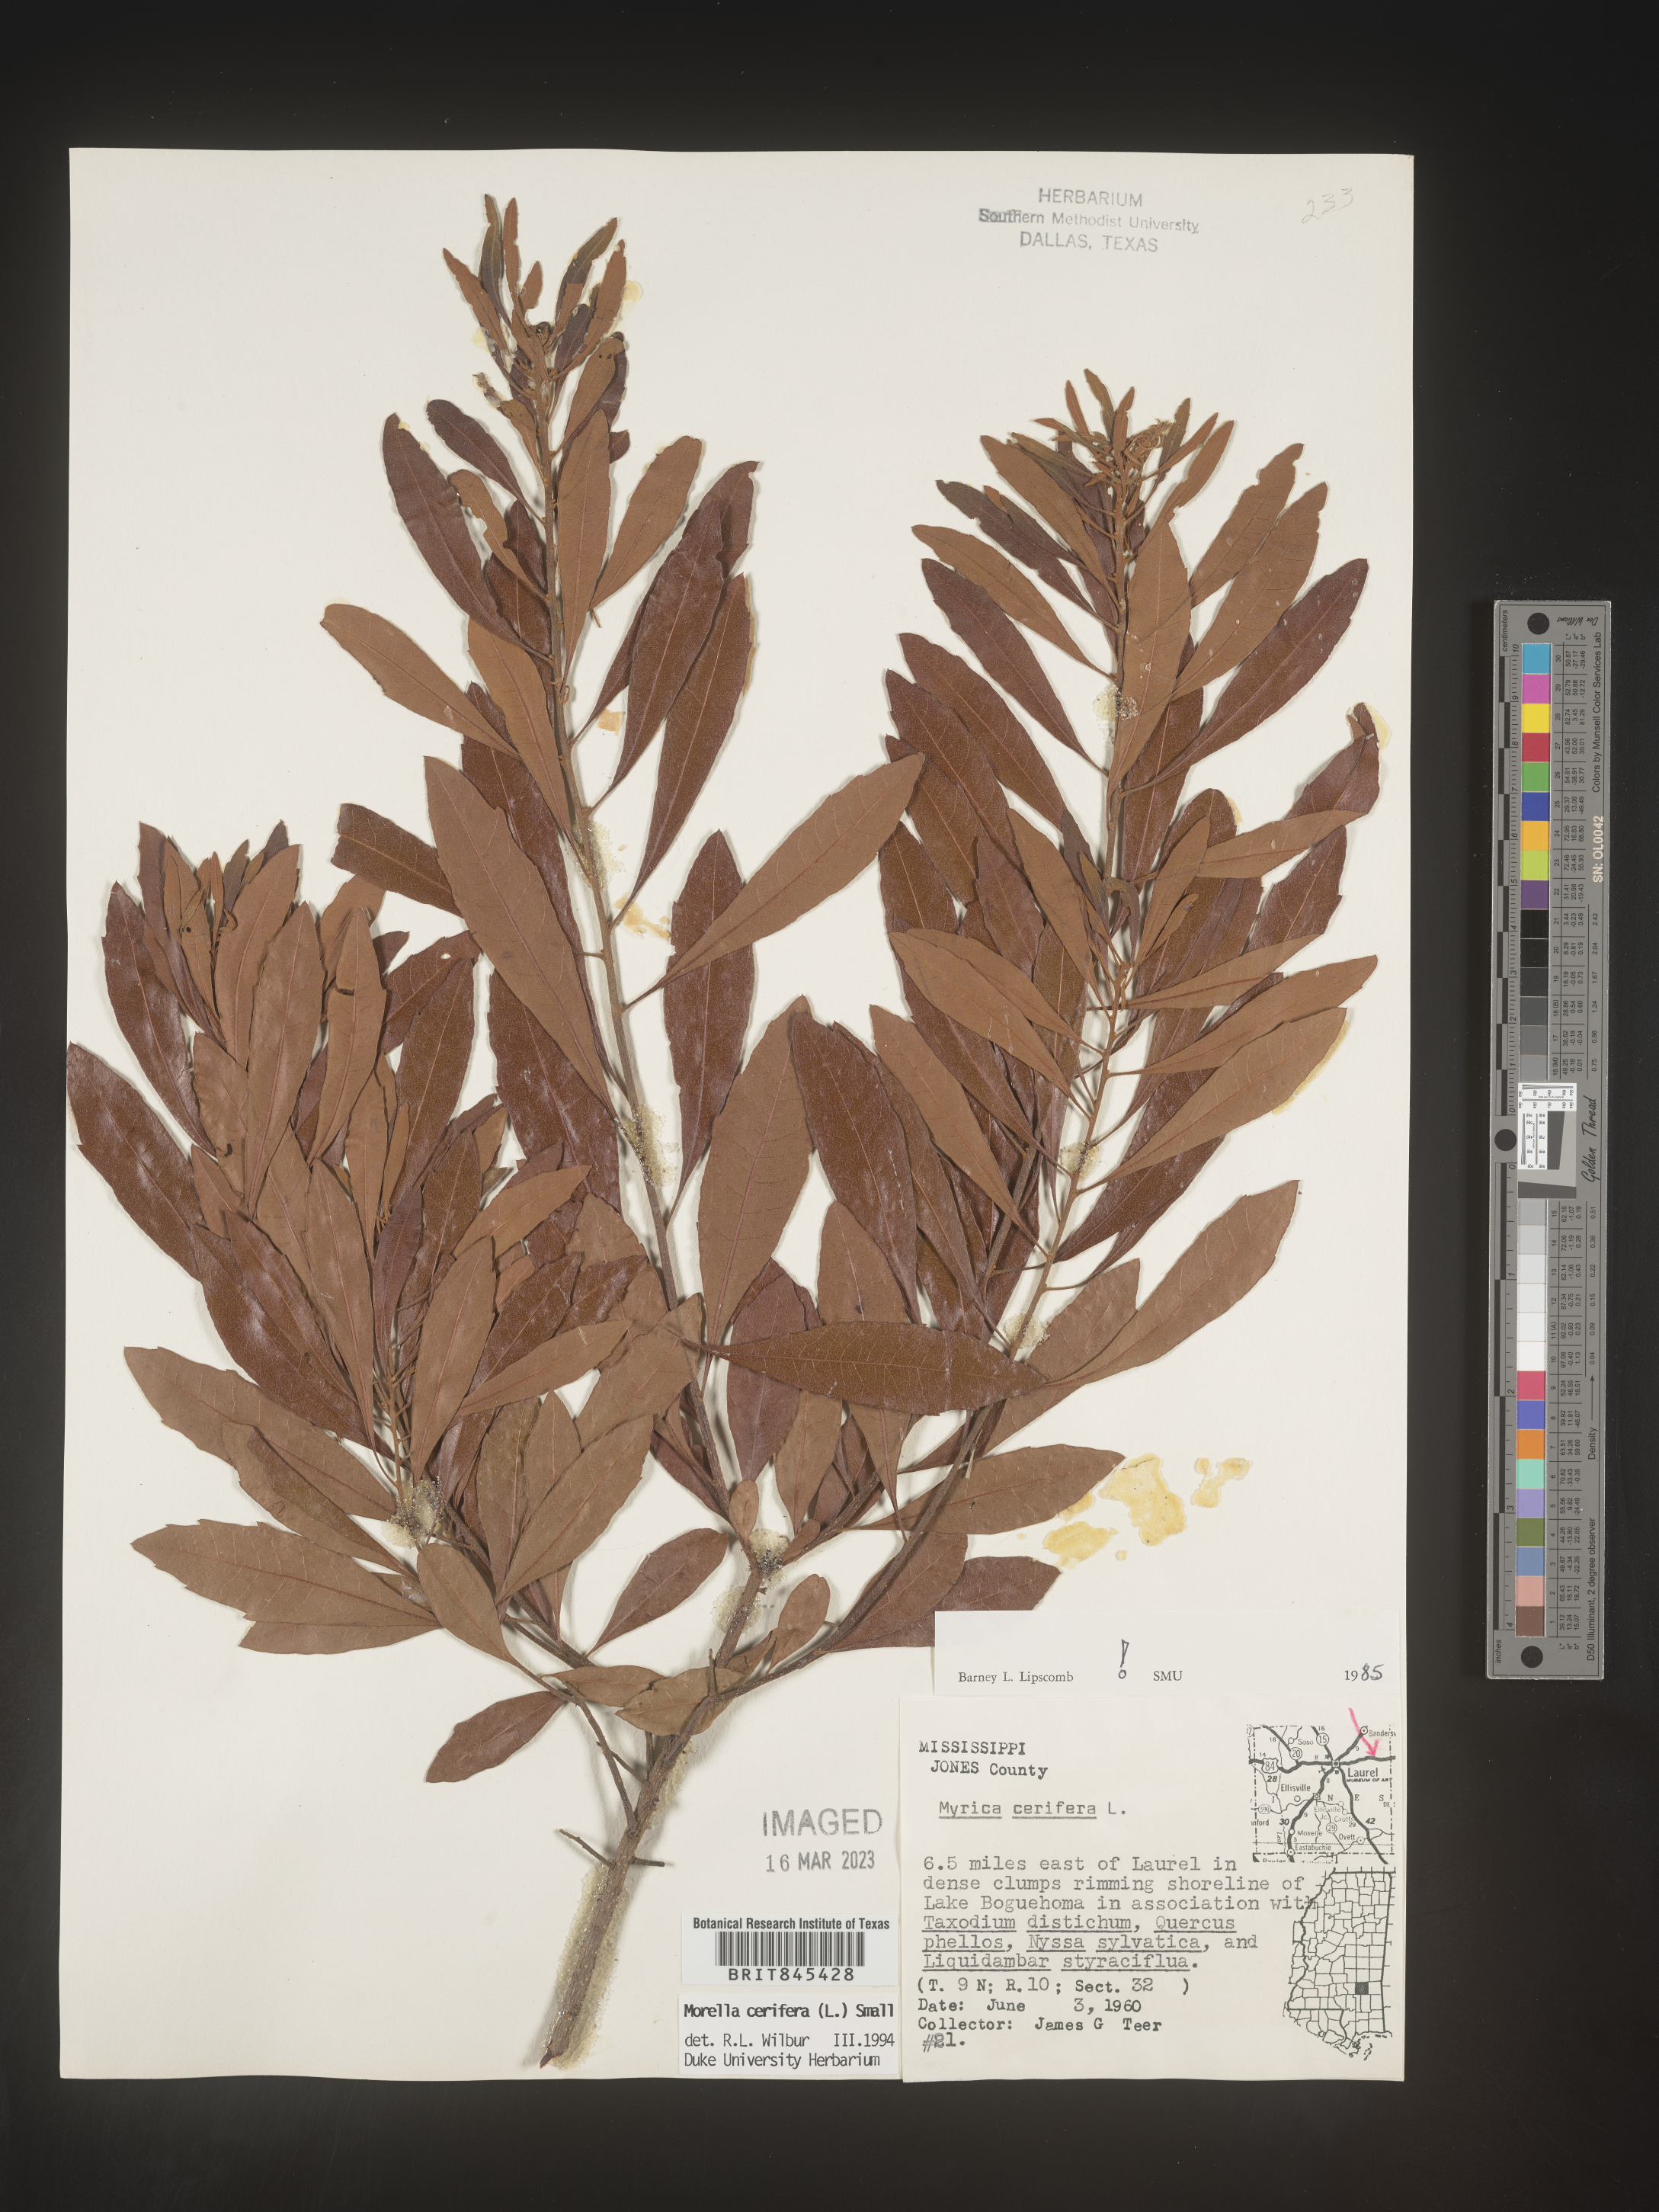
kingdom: Plantae
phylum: Tracheophyta
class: Magnoliopsida
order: Fagales
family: Myricaceae
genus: Morella
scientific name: Morella cerifera
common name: Wax myrtle
